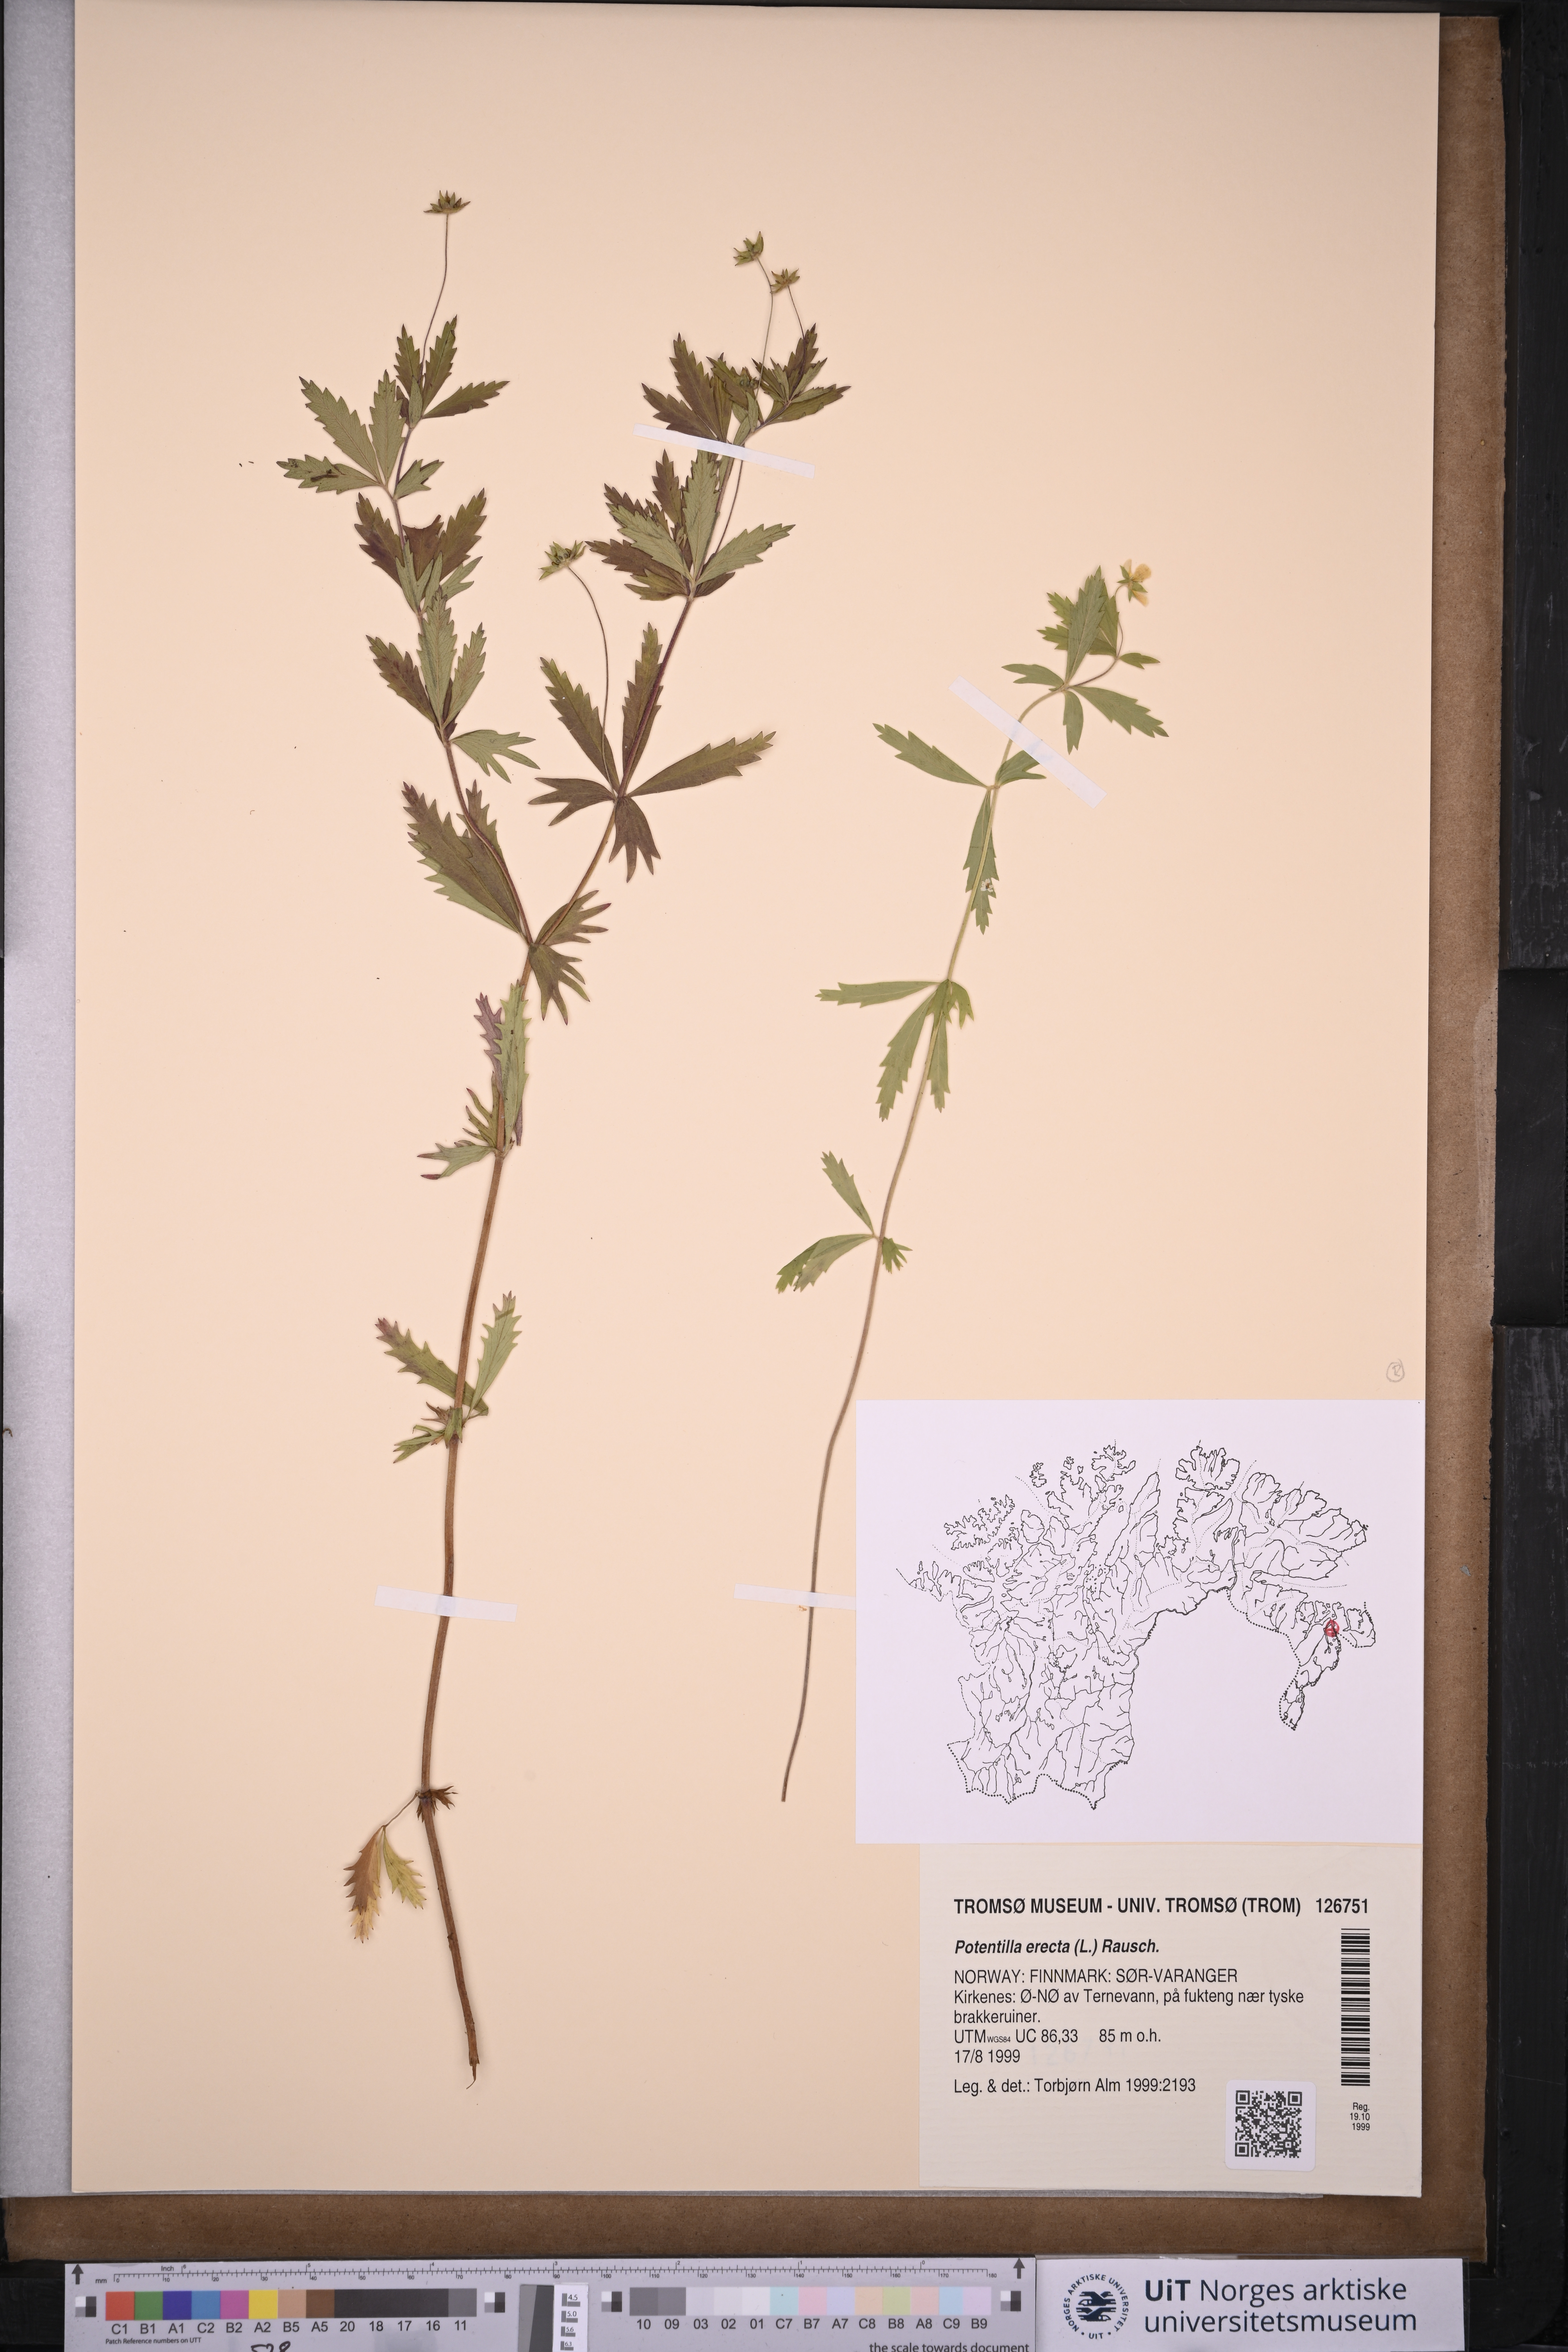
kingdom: Plantae
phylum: Tracheophyta
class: Magnoliopsida
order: Rosales
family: Rosaceae
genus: Potentilla
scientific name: Potentilla erecta
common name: Tormentil
